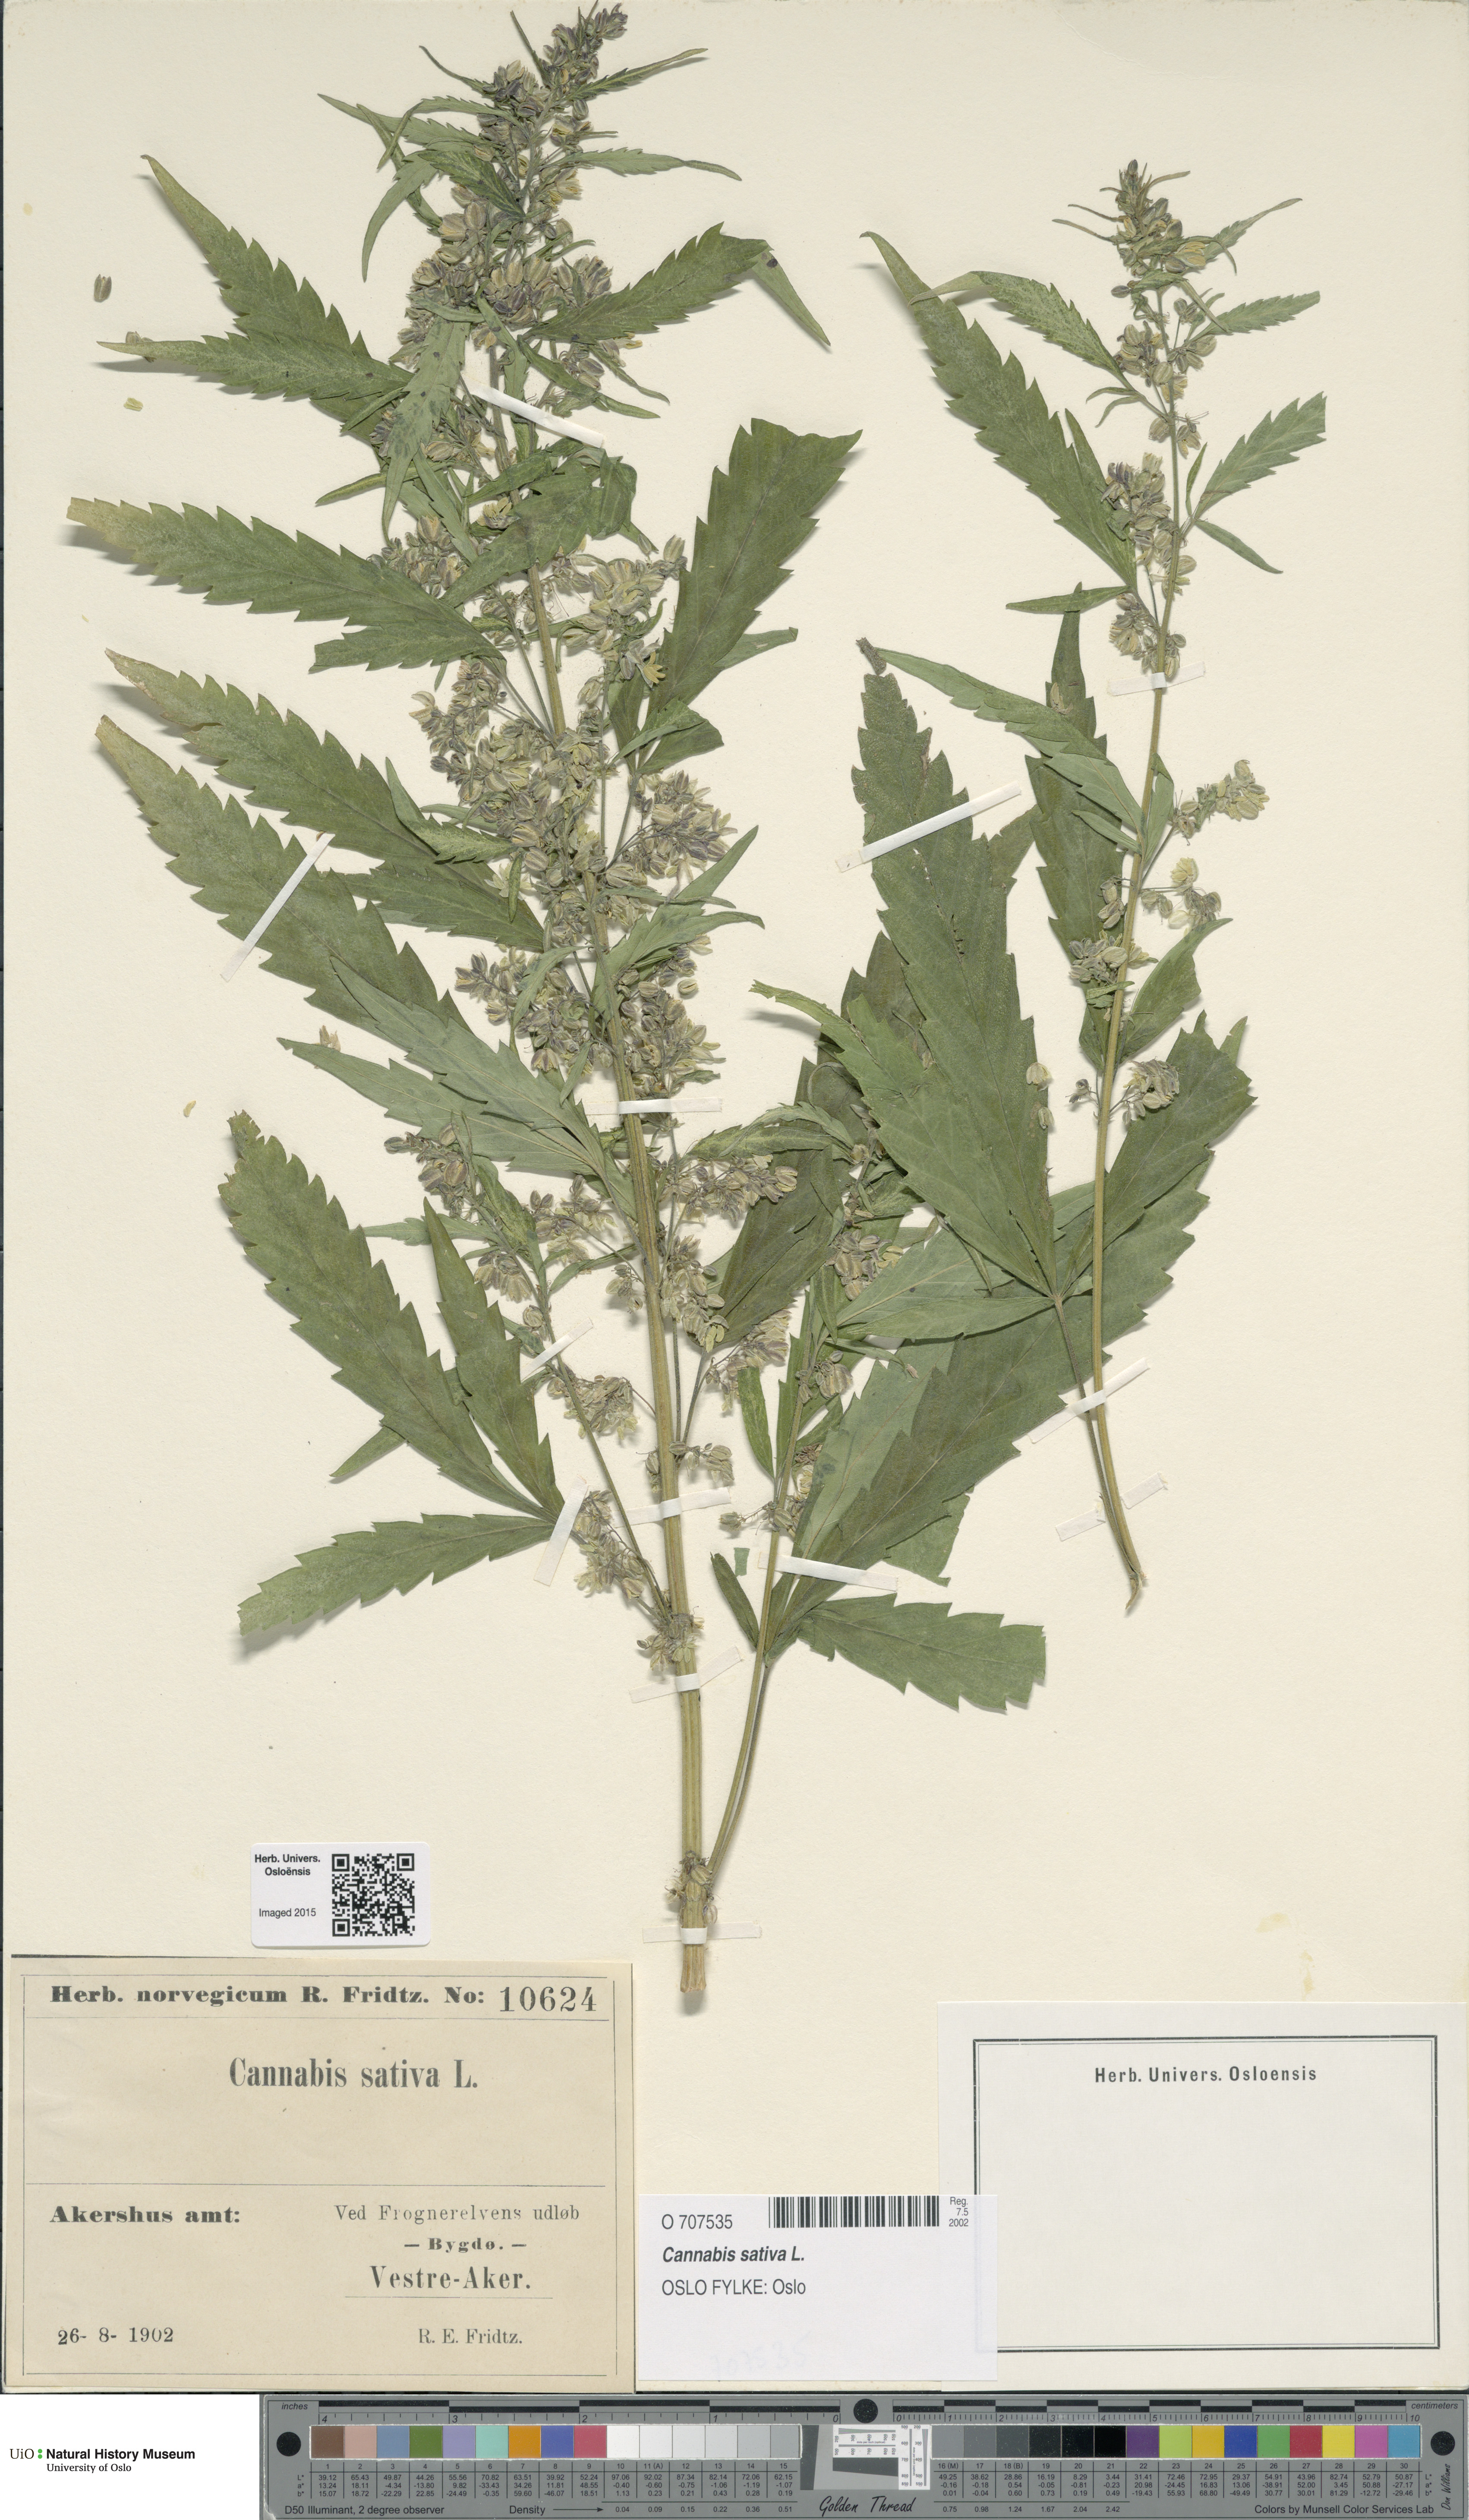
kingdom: Plantae
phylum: Tracheophyta
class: Magnoliopsida
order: Rosales
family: Cannabaceae
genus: Cannabis
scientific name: Cannabis sativa
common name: Hemp
